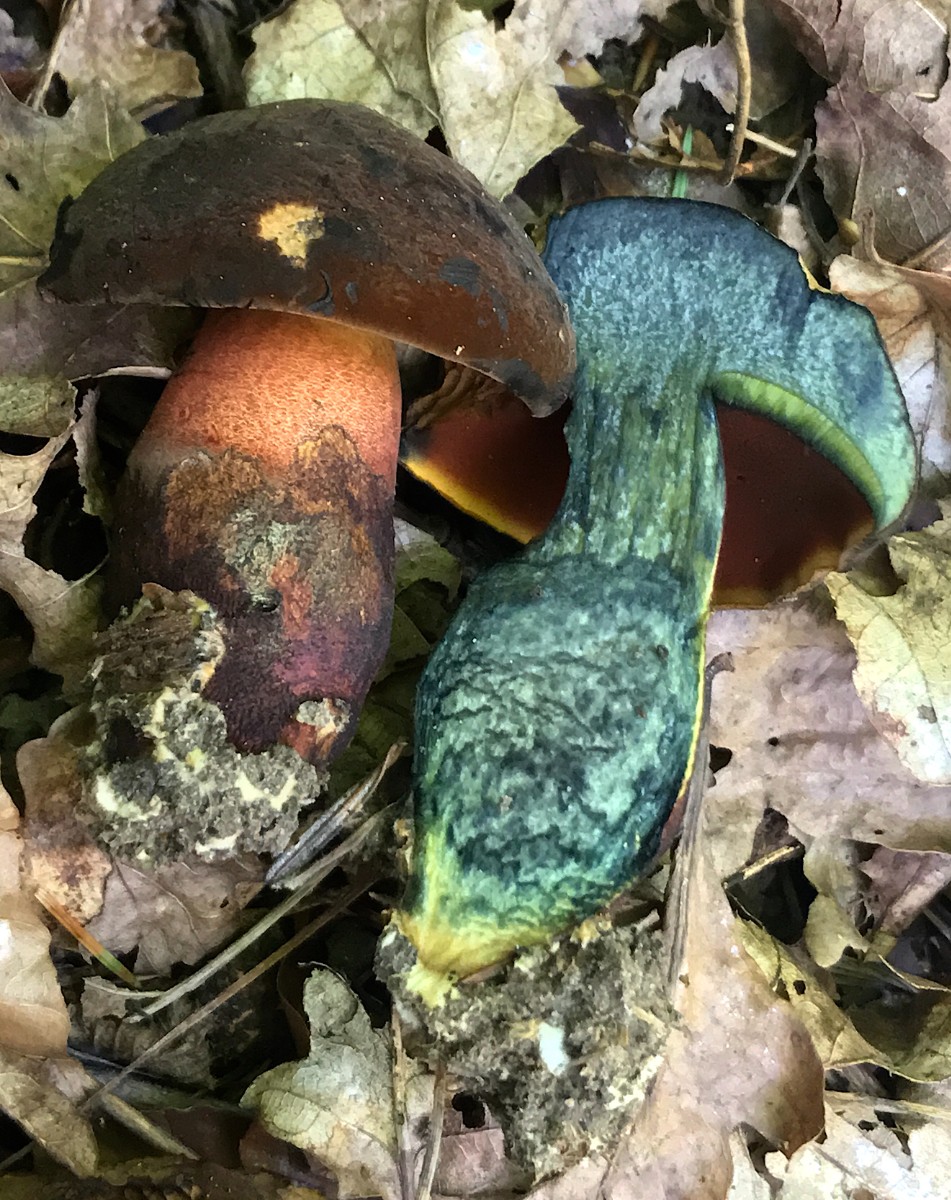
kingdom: Fungi
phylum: Basidiomycota
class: Agaricomycetes
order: Boletales
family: Boletaceae
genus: Neoboletus
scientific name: Neoboletus erythropus
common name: punktstokket indigorørhat
